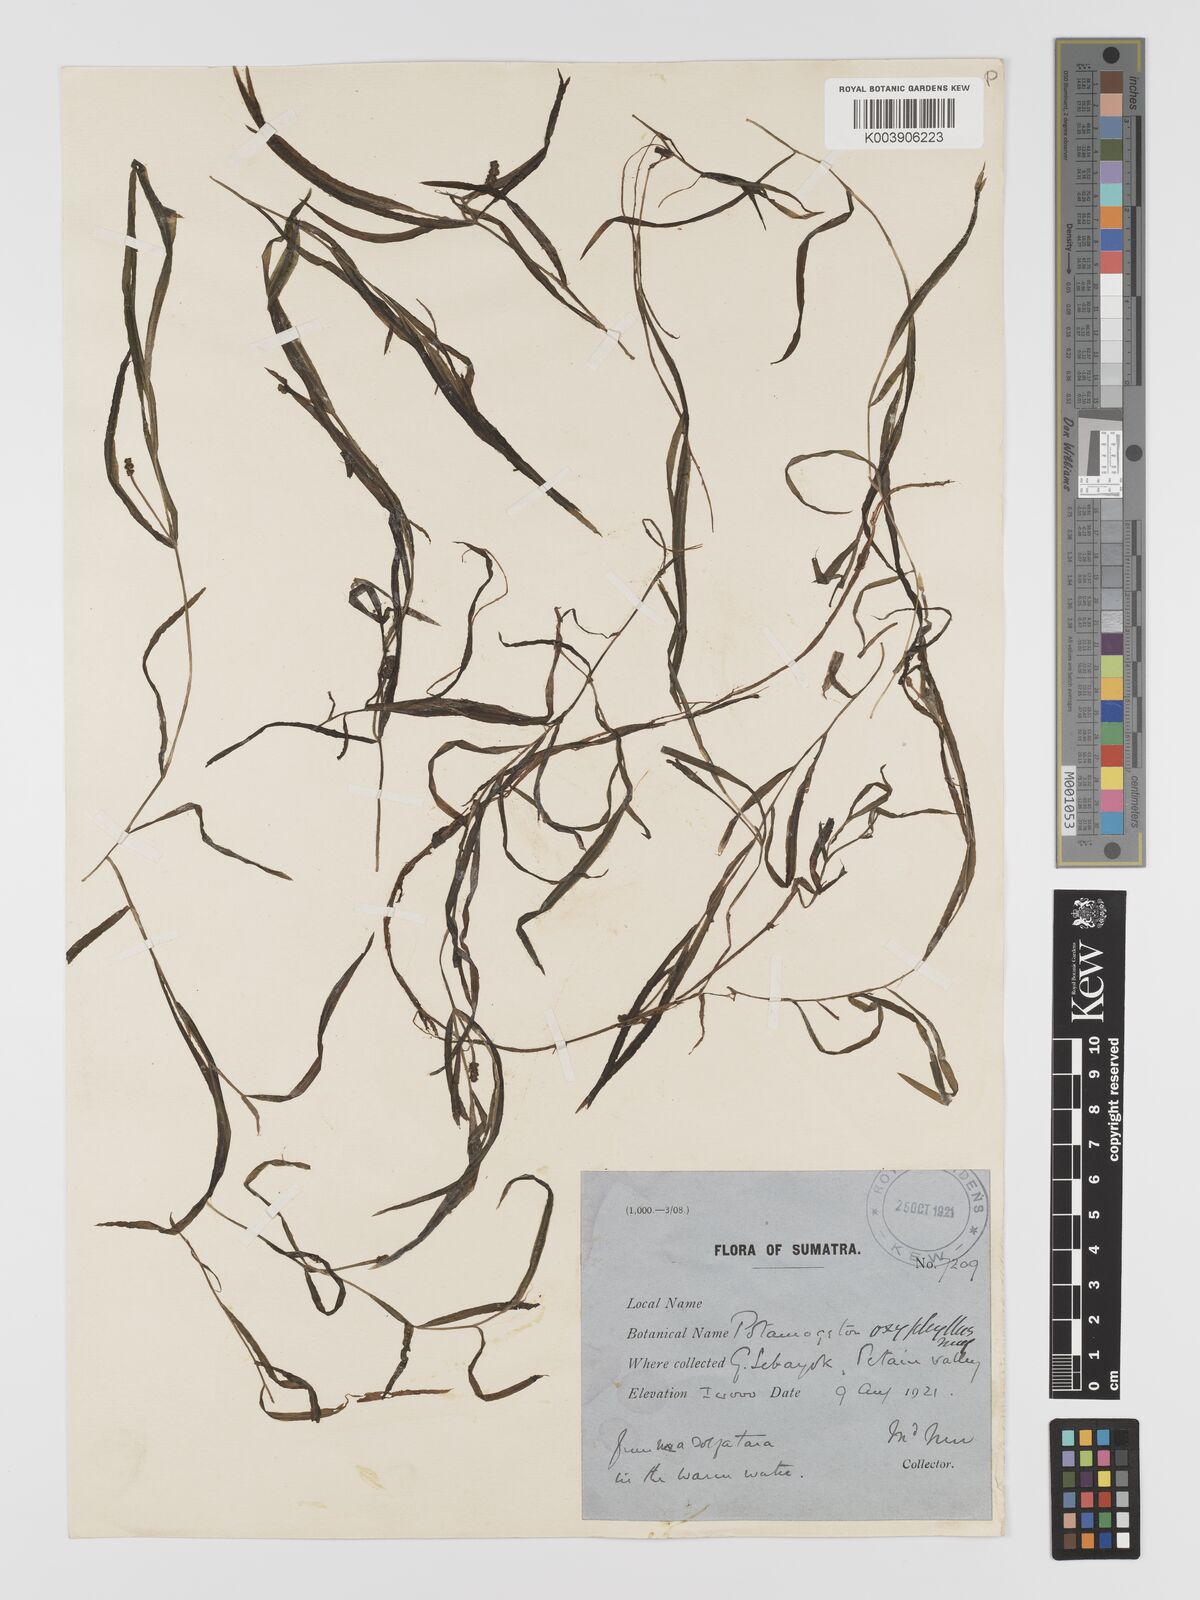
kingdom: Plantae
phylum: Tracheophyta
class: Liliopsida
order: Alismatales
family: Potamogetonaceae
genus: Potamogeton
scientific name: Potamogeton oxyphyllus
